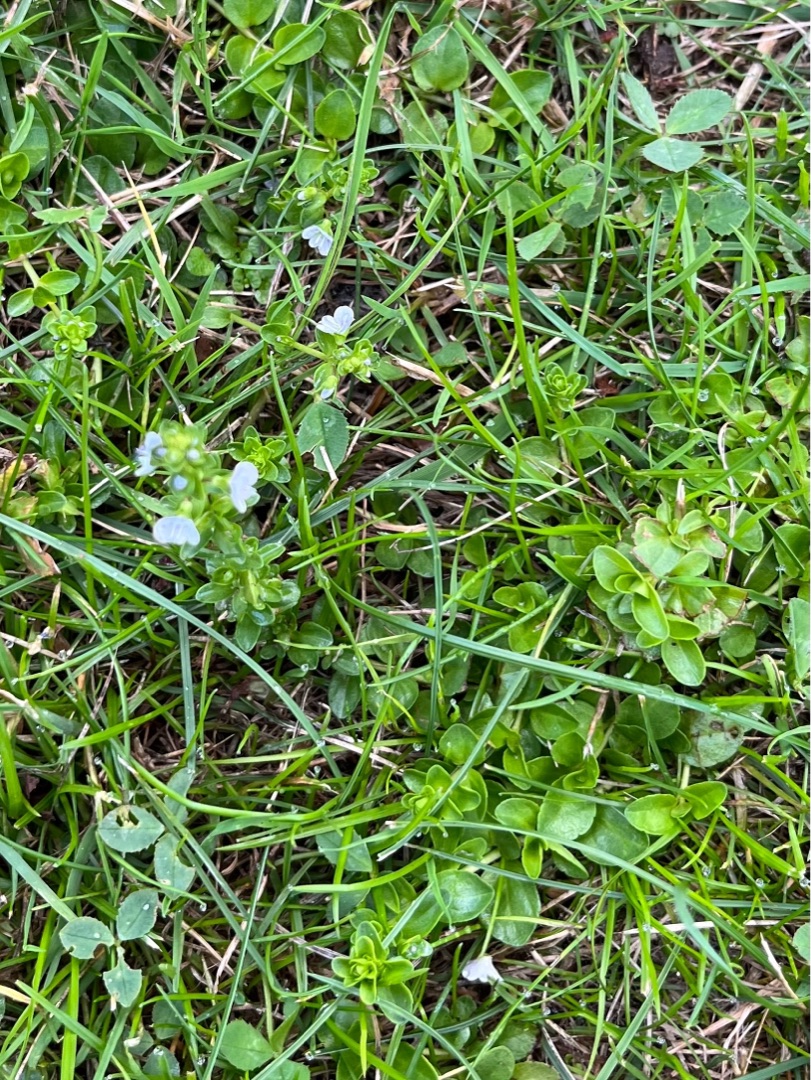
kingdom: Plantae
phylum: Tracheophyta
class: Magnoliopsida
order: Lamiales
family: Plantaginaceae
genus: Veronica
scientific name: Veronica serpyllifolia
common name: Glat ærenpris
